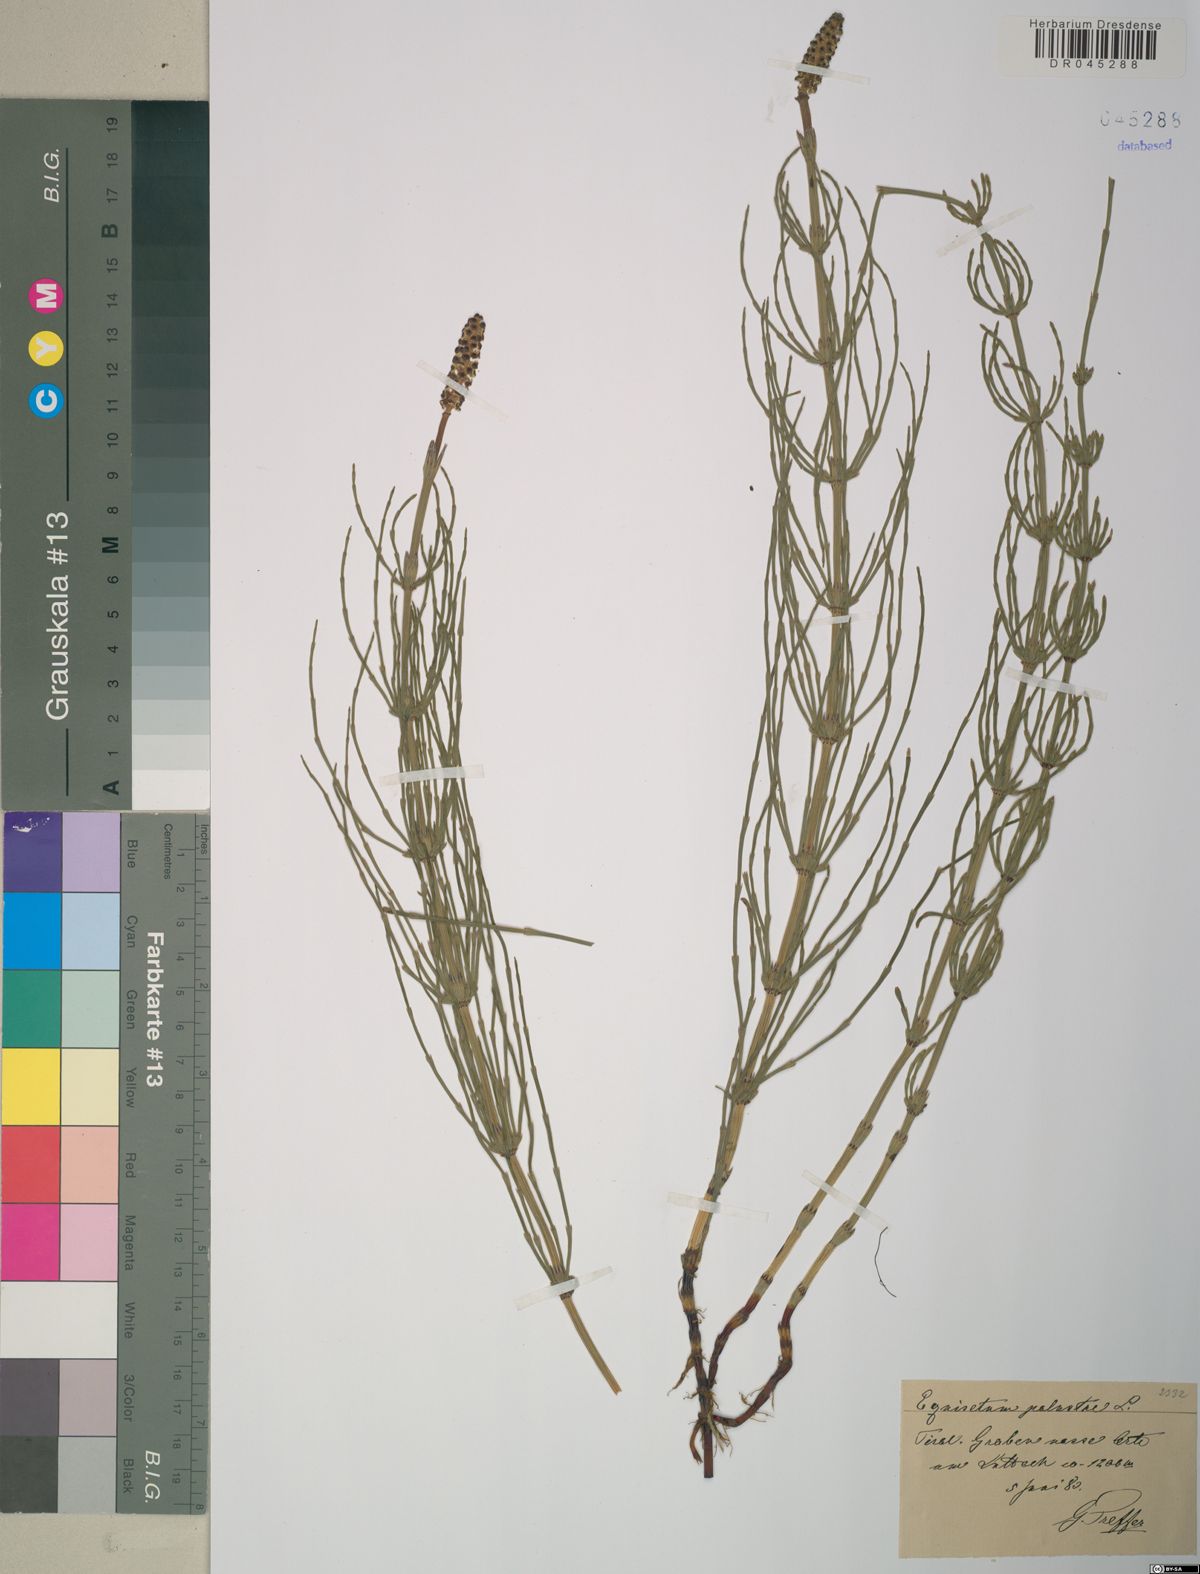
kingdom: Plantae
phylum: Tracheophyta
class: Polypodiopsida
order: Equisetales
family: Equisetaceae
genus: Equisetum
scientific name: Equisetum palustre
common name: Marsh horsetail
